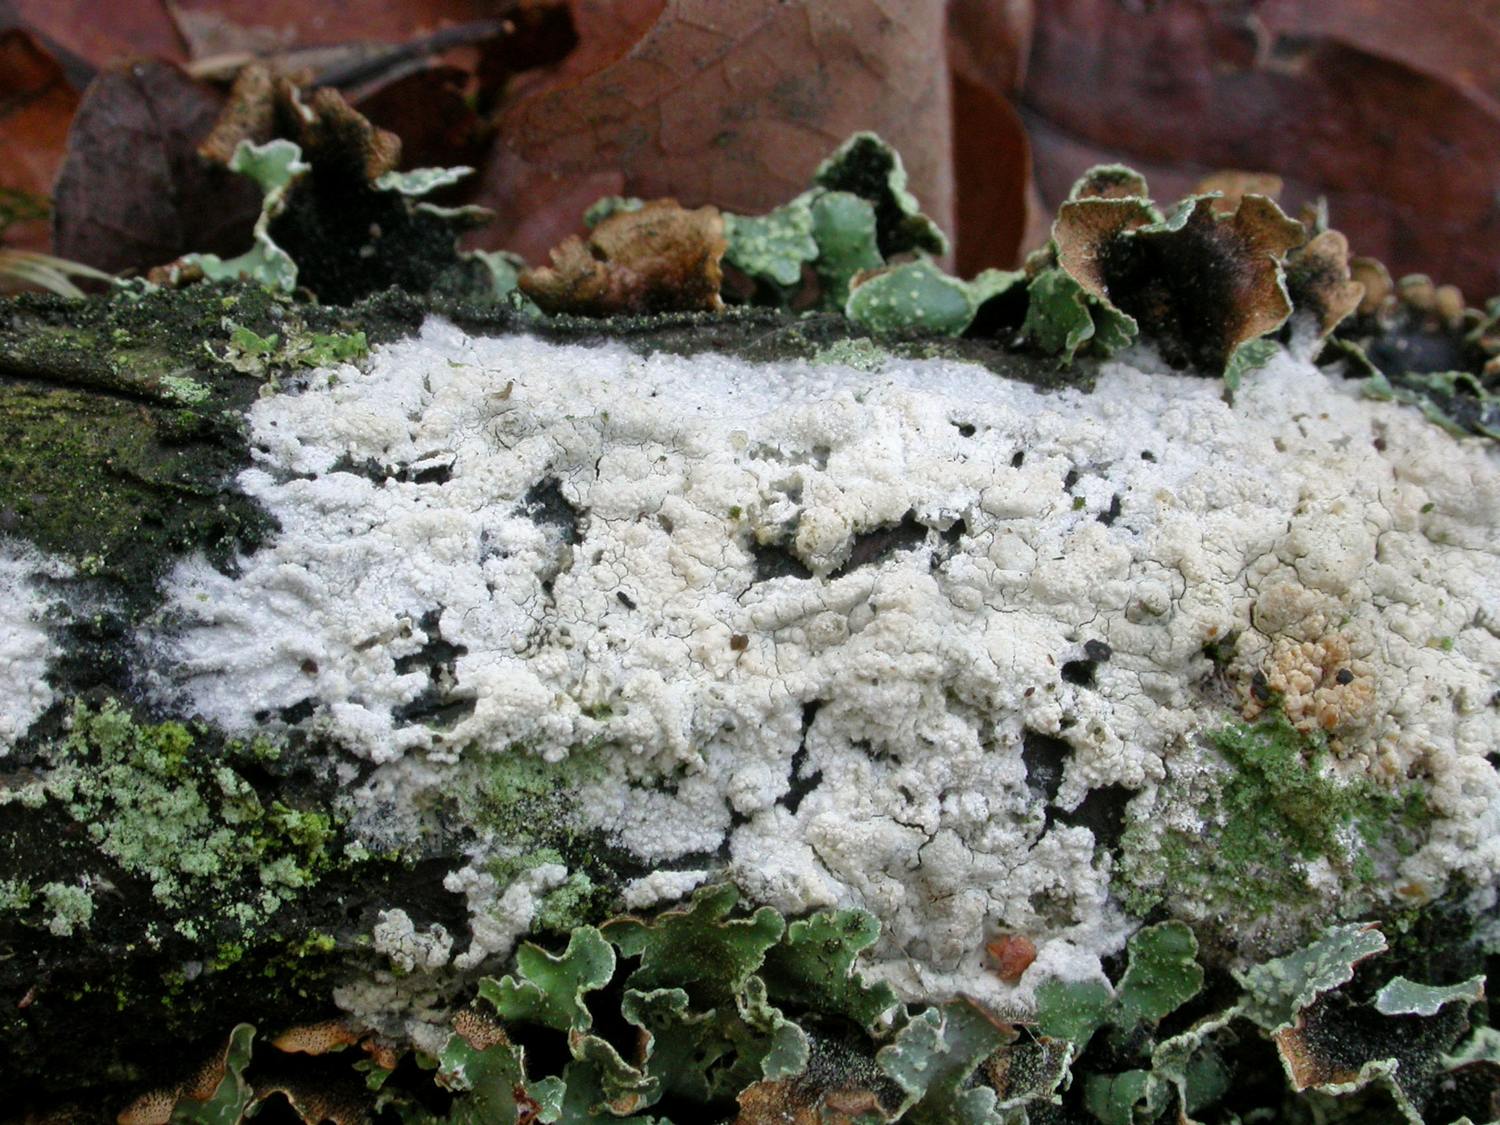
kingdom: Fungi
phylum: Basidiomycota
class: Agaricomycetes
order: Polyporales
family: Hyphodermataceae
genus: Hyphoderma
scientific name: Hyphoderma setigerum
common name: håret kalkskind
